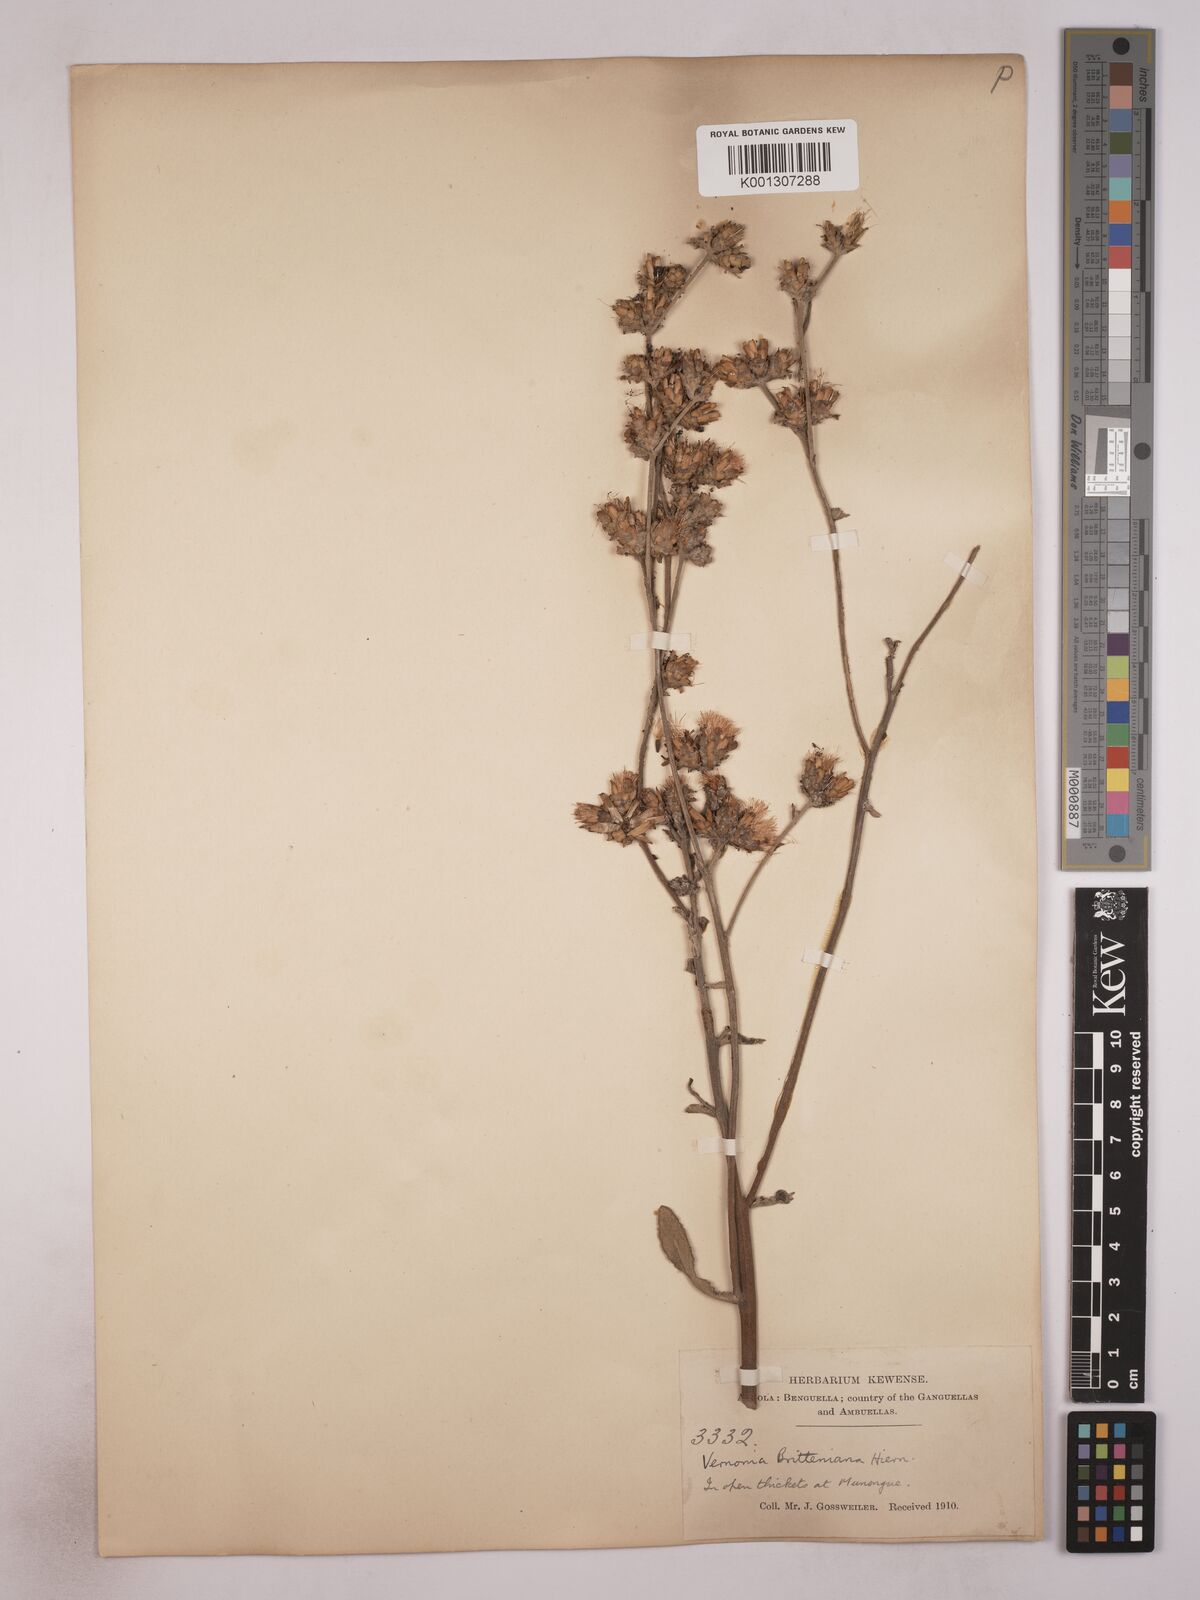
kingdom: Plantae
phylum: Tracheophyta
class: Magnoliopsida
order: Asterales
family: Asteraceae
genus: Vernonia
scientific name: Vernonia britteniana
